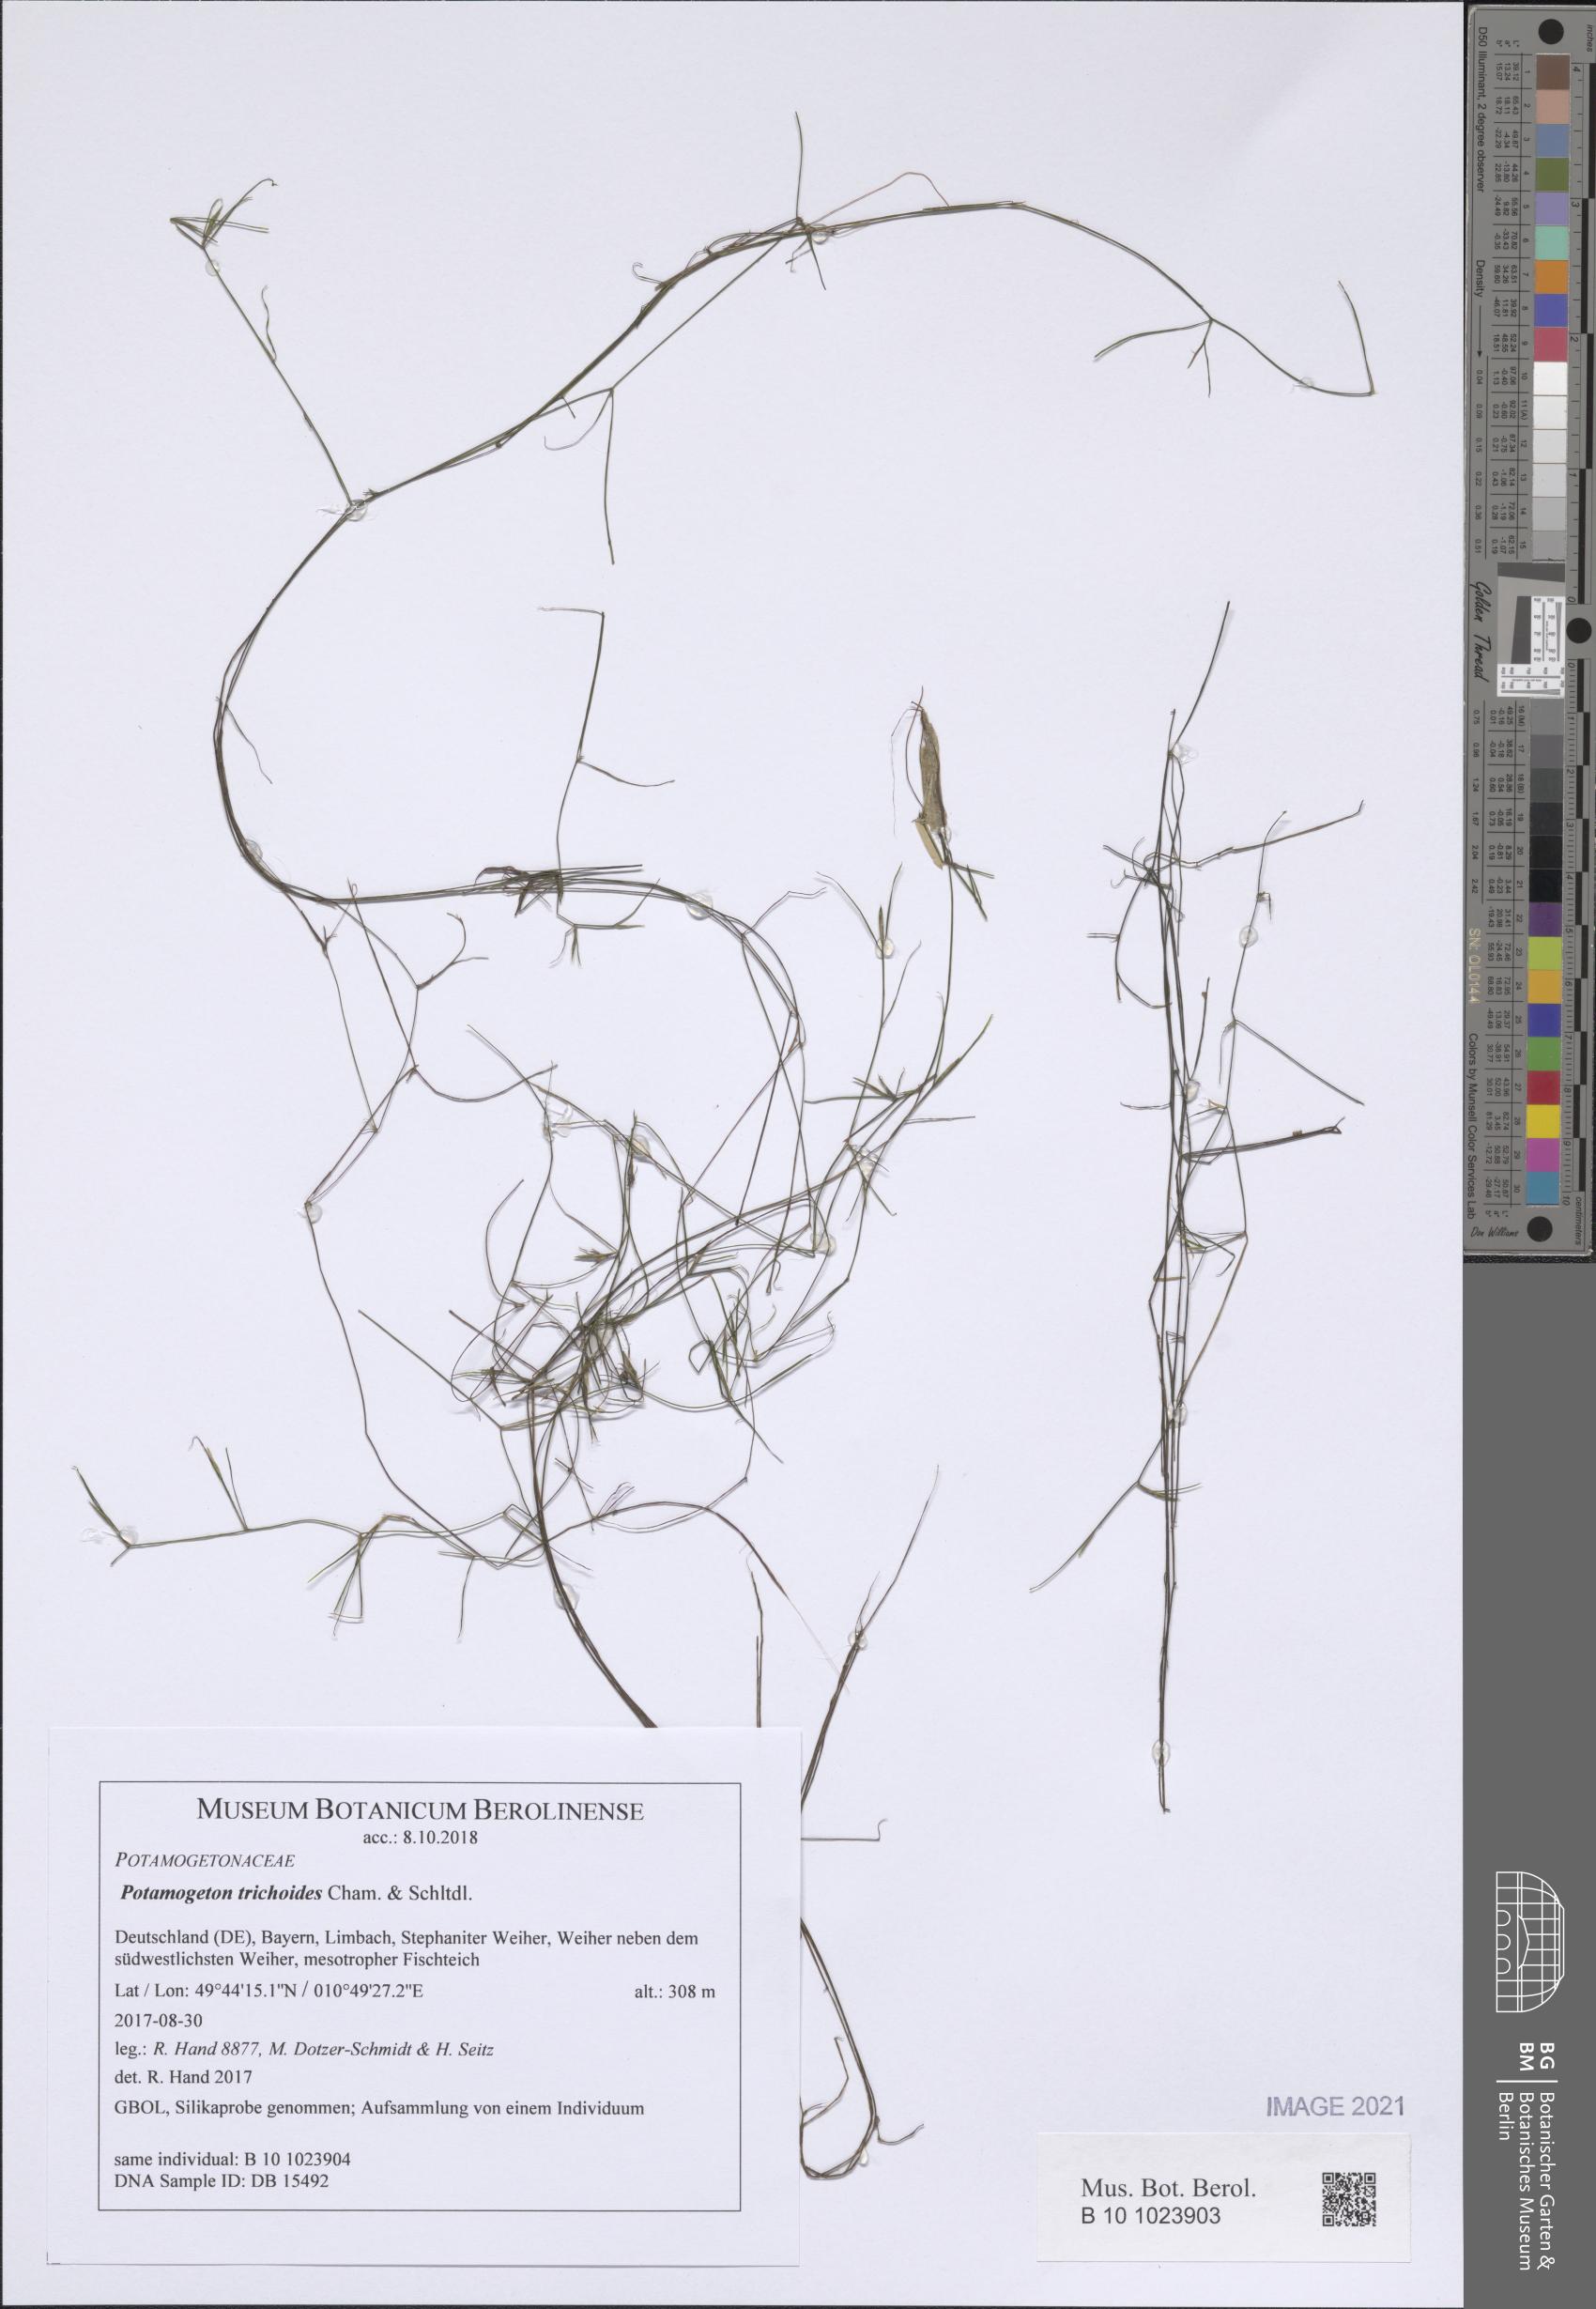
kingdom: Plantae
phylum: Tracheophyta
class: Liliopsida
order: Alismatales
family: Potamogetonaceae
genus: Potamogeton
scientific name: Potamogeton trichoides
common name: Hairlike pondweed
